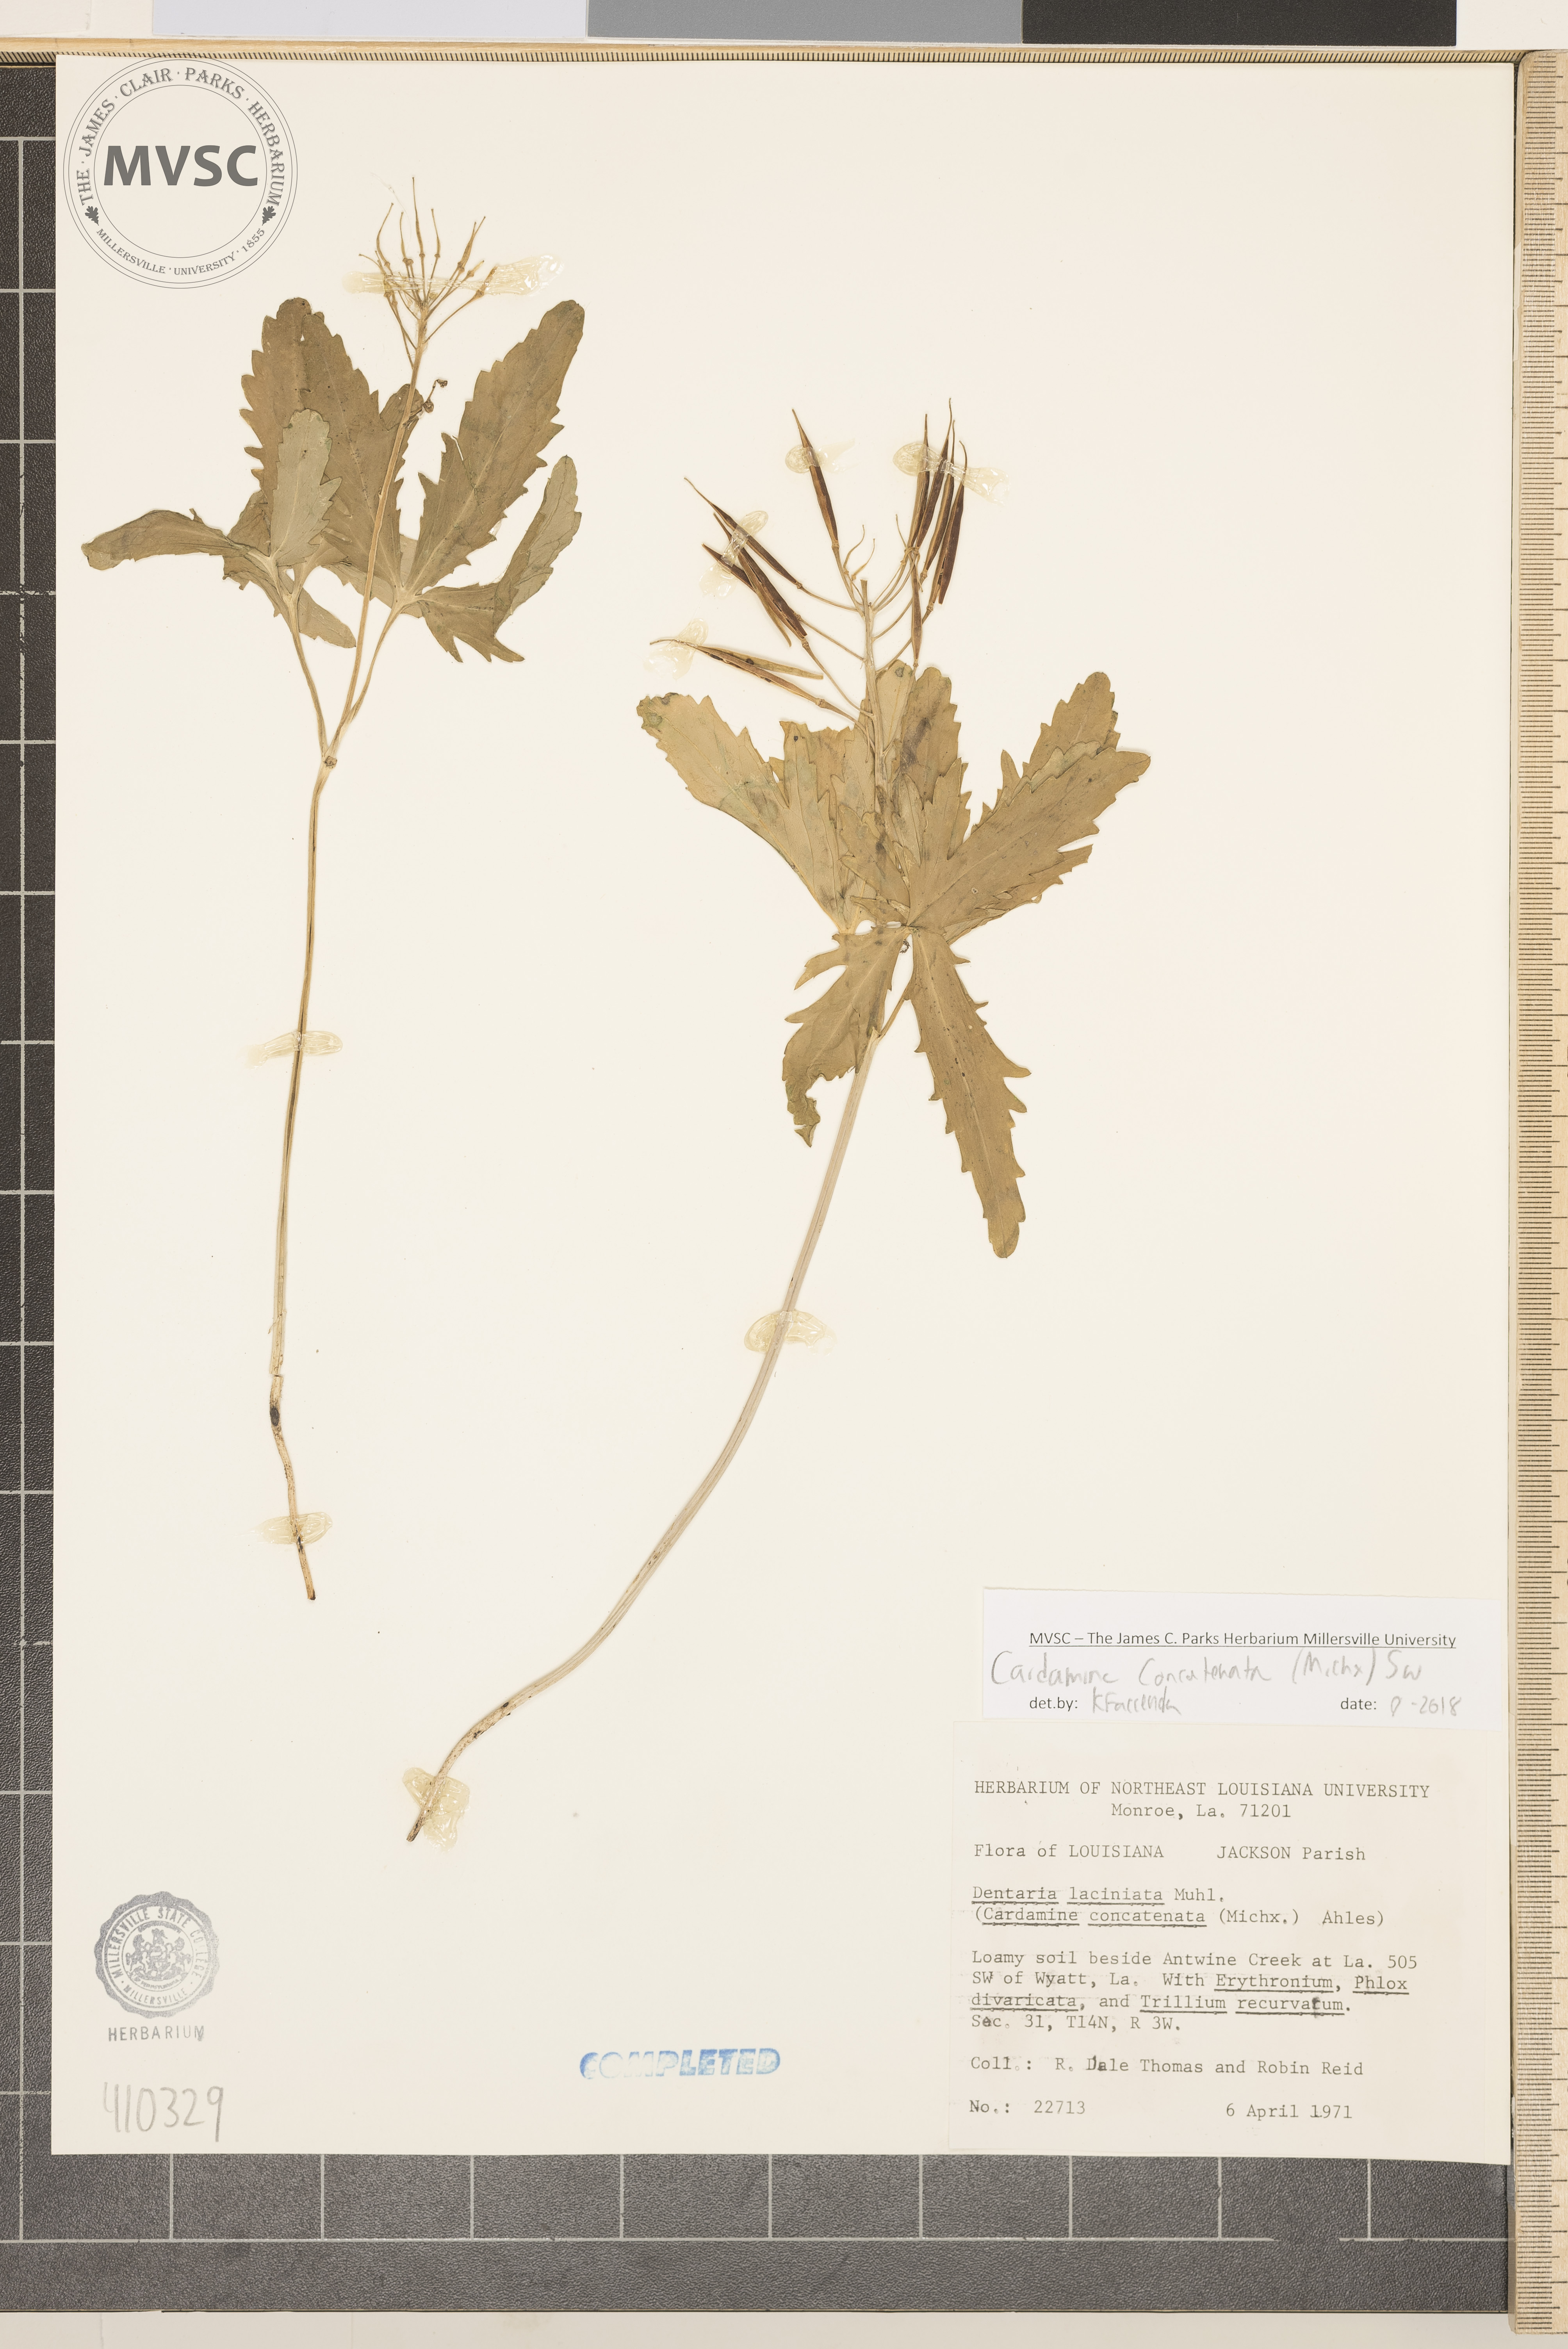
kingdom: Plantae
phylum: Tracheophyta
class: Magnoliopsida
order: Brassicales
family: Brassicaceae
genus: Cardamine
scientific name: Cardamine concatenata
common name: Cut-leaf toothcup
